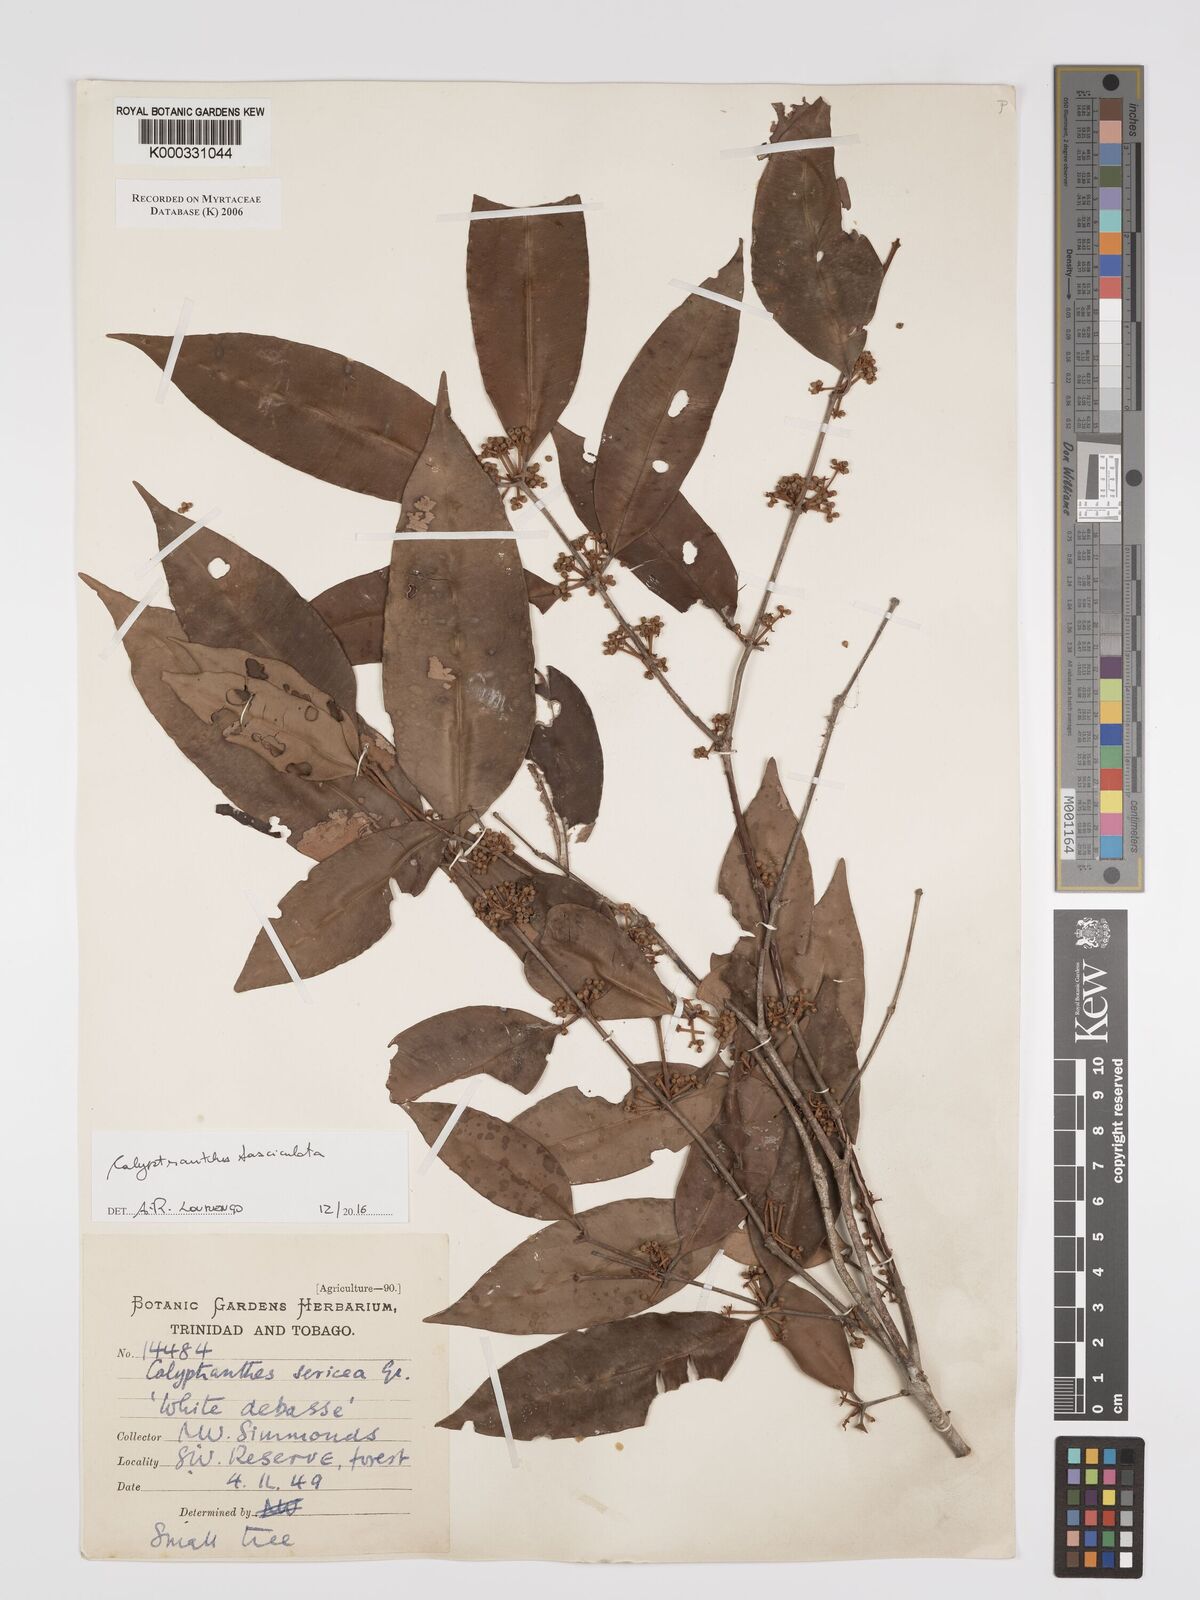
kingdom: Plantae
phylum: Tracheophyta
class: Magnoliopsida
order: Myrtales
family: Myrtaceae
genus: Myrcia
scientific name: Myrcia fasciculata
